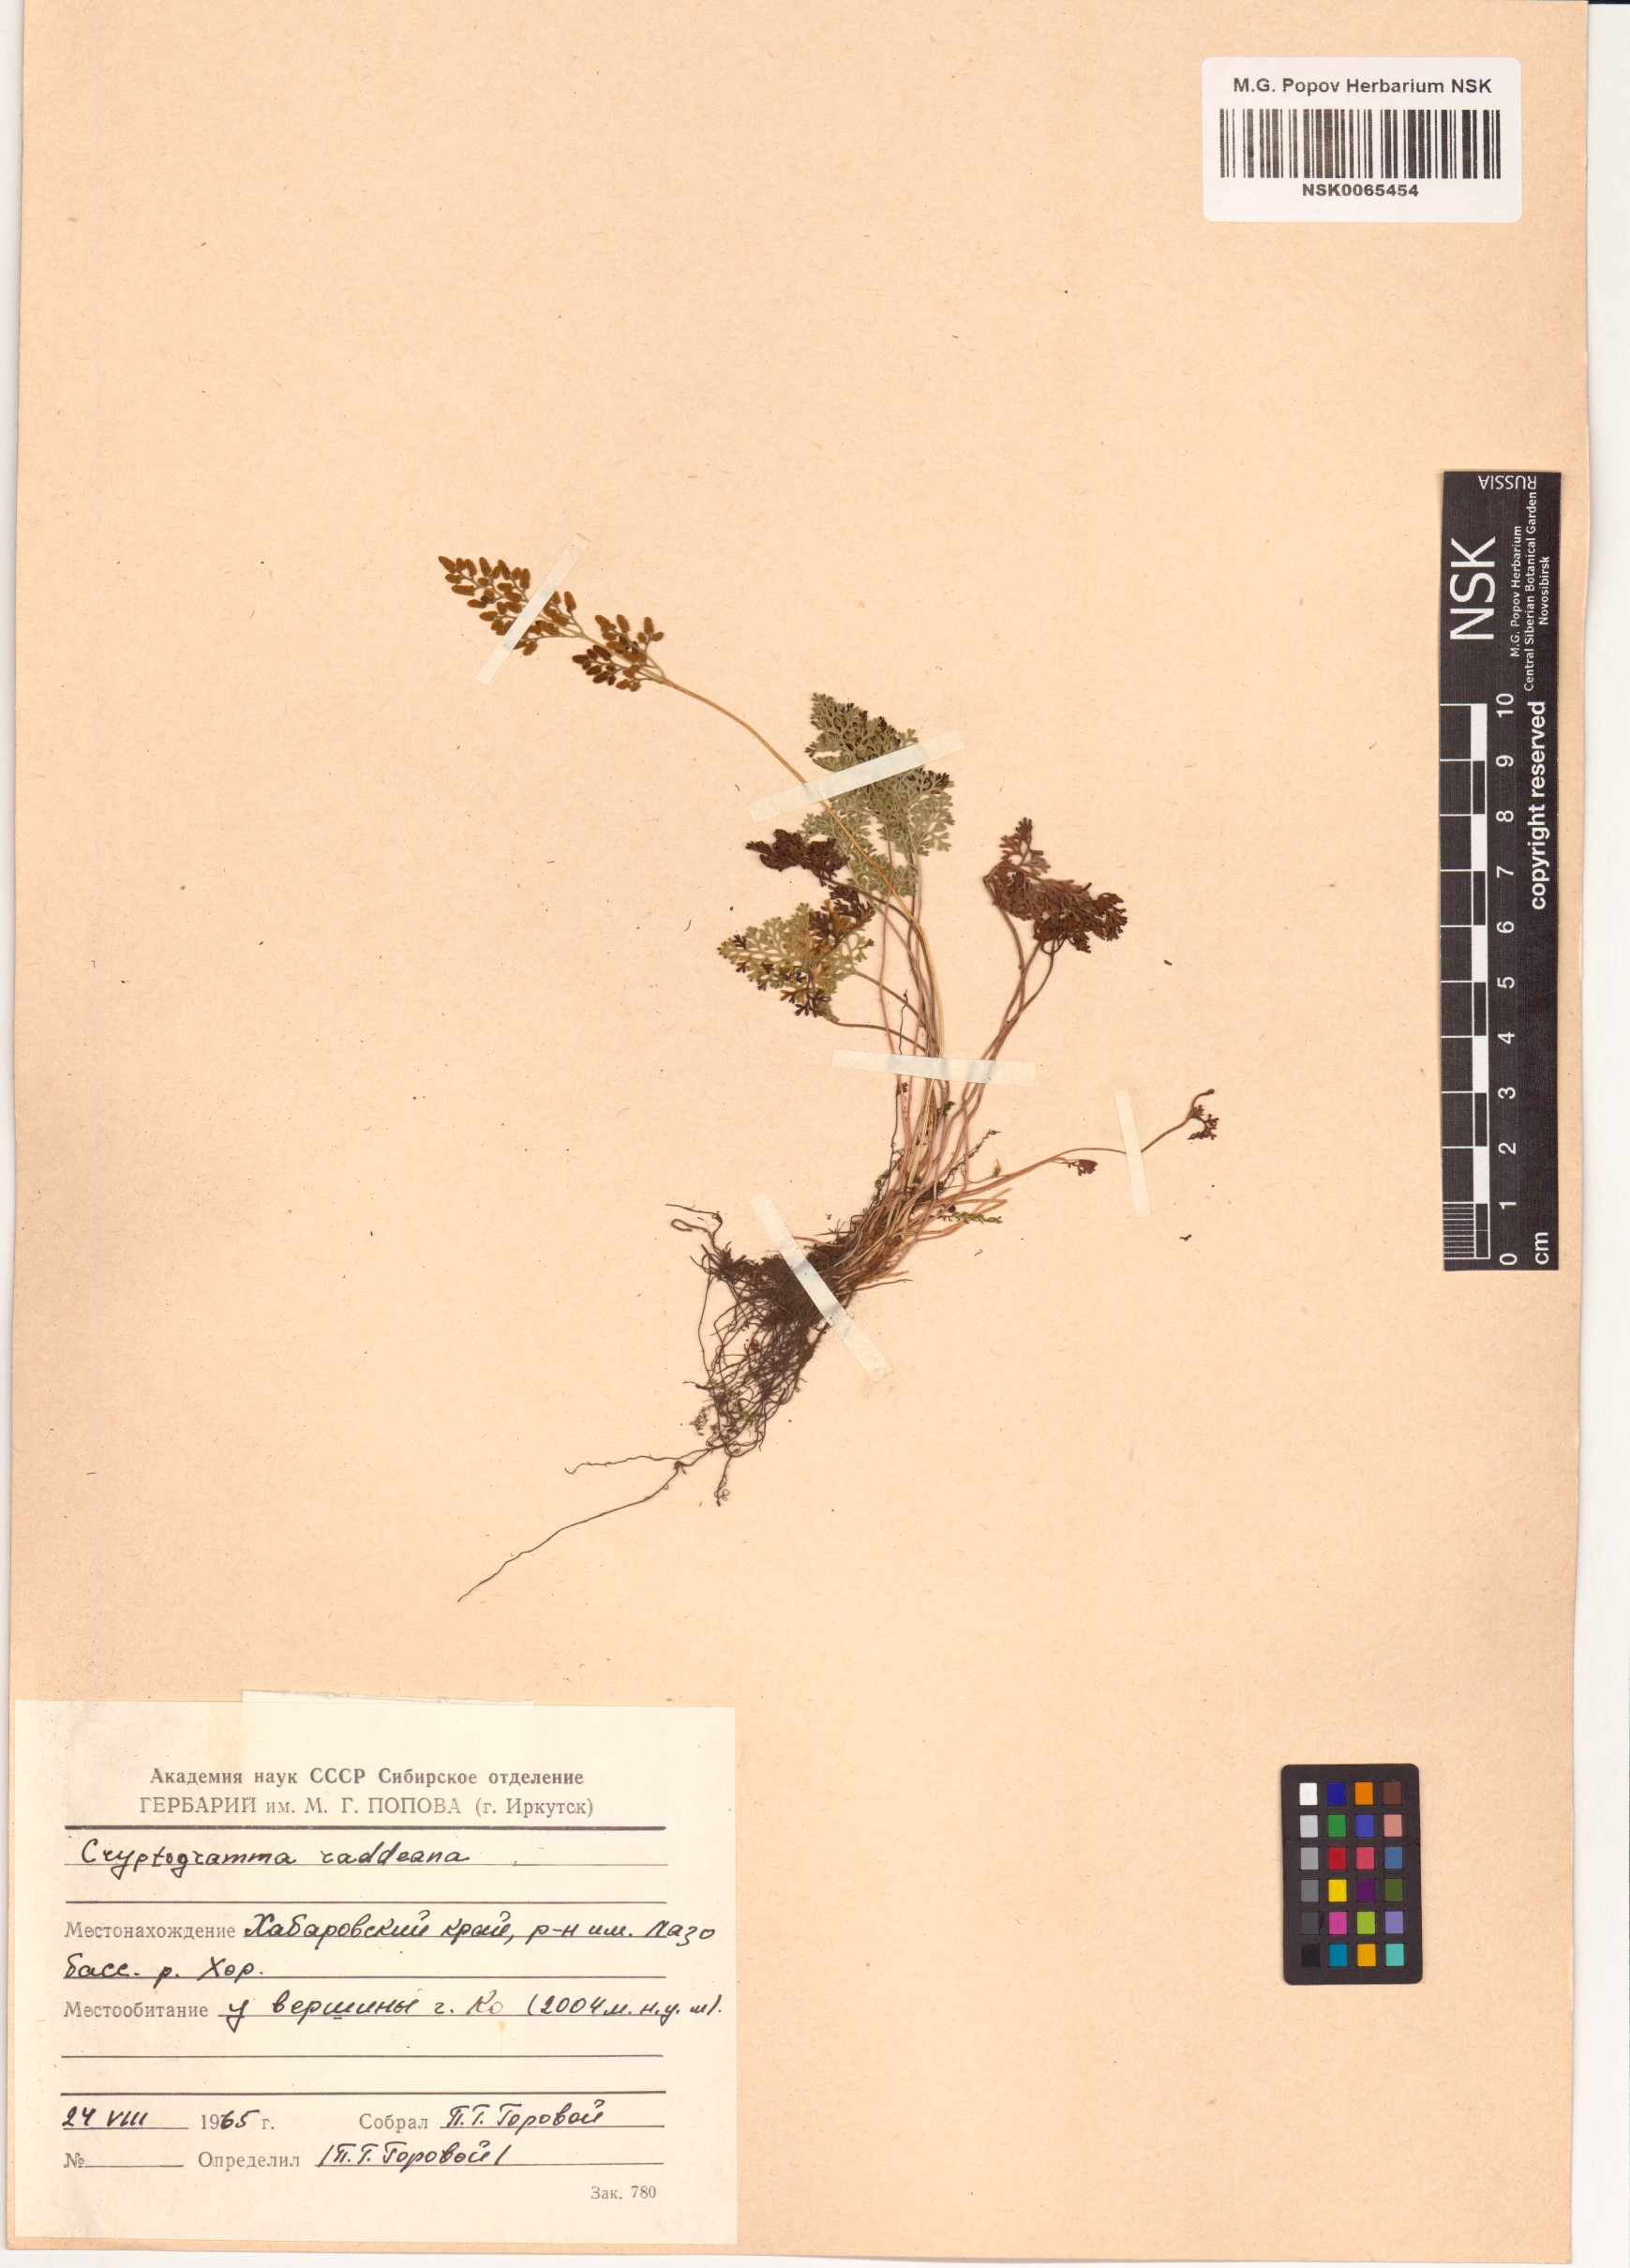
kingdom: Plantae
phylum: Tracheophyta
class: Polypodiopsida
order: Polypodiales
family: Pteridaceae
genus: Cryptogramma
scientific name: Cryptogramma brunoniana
